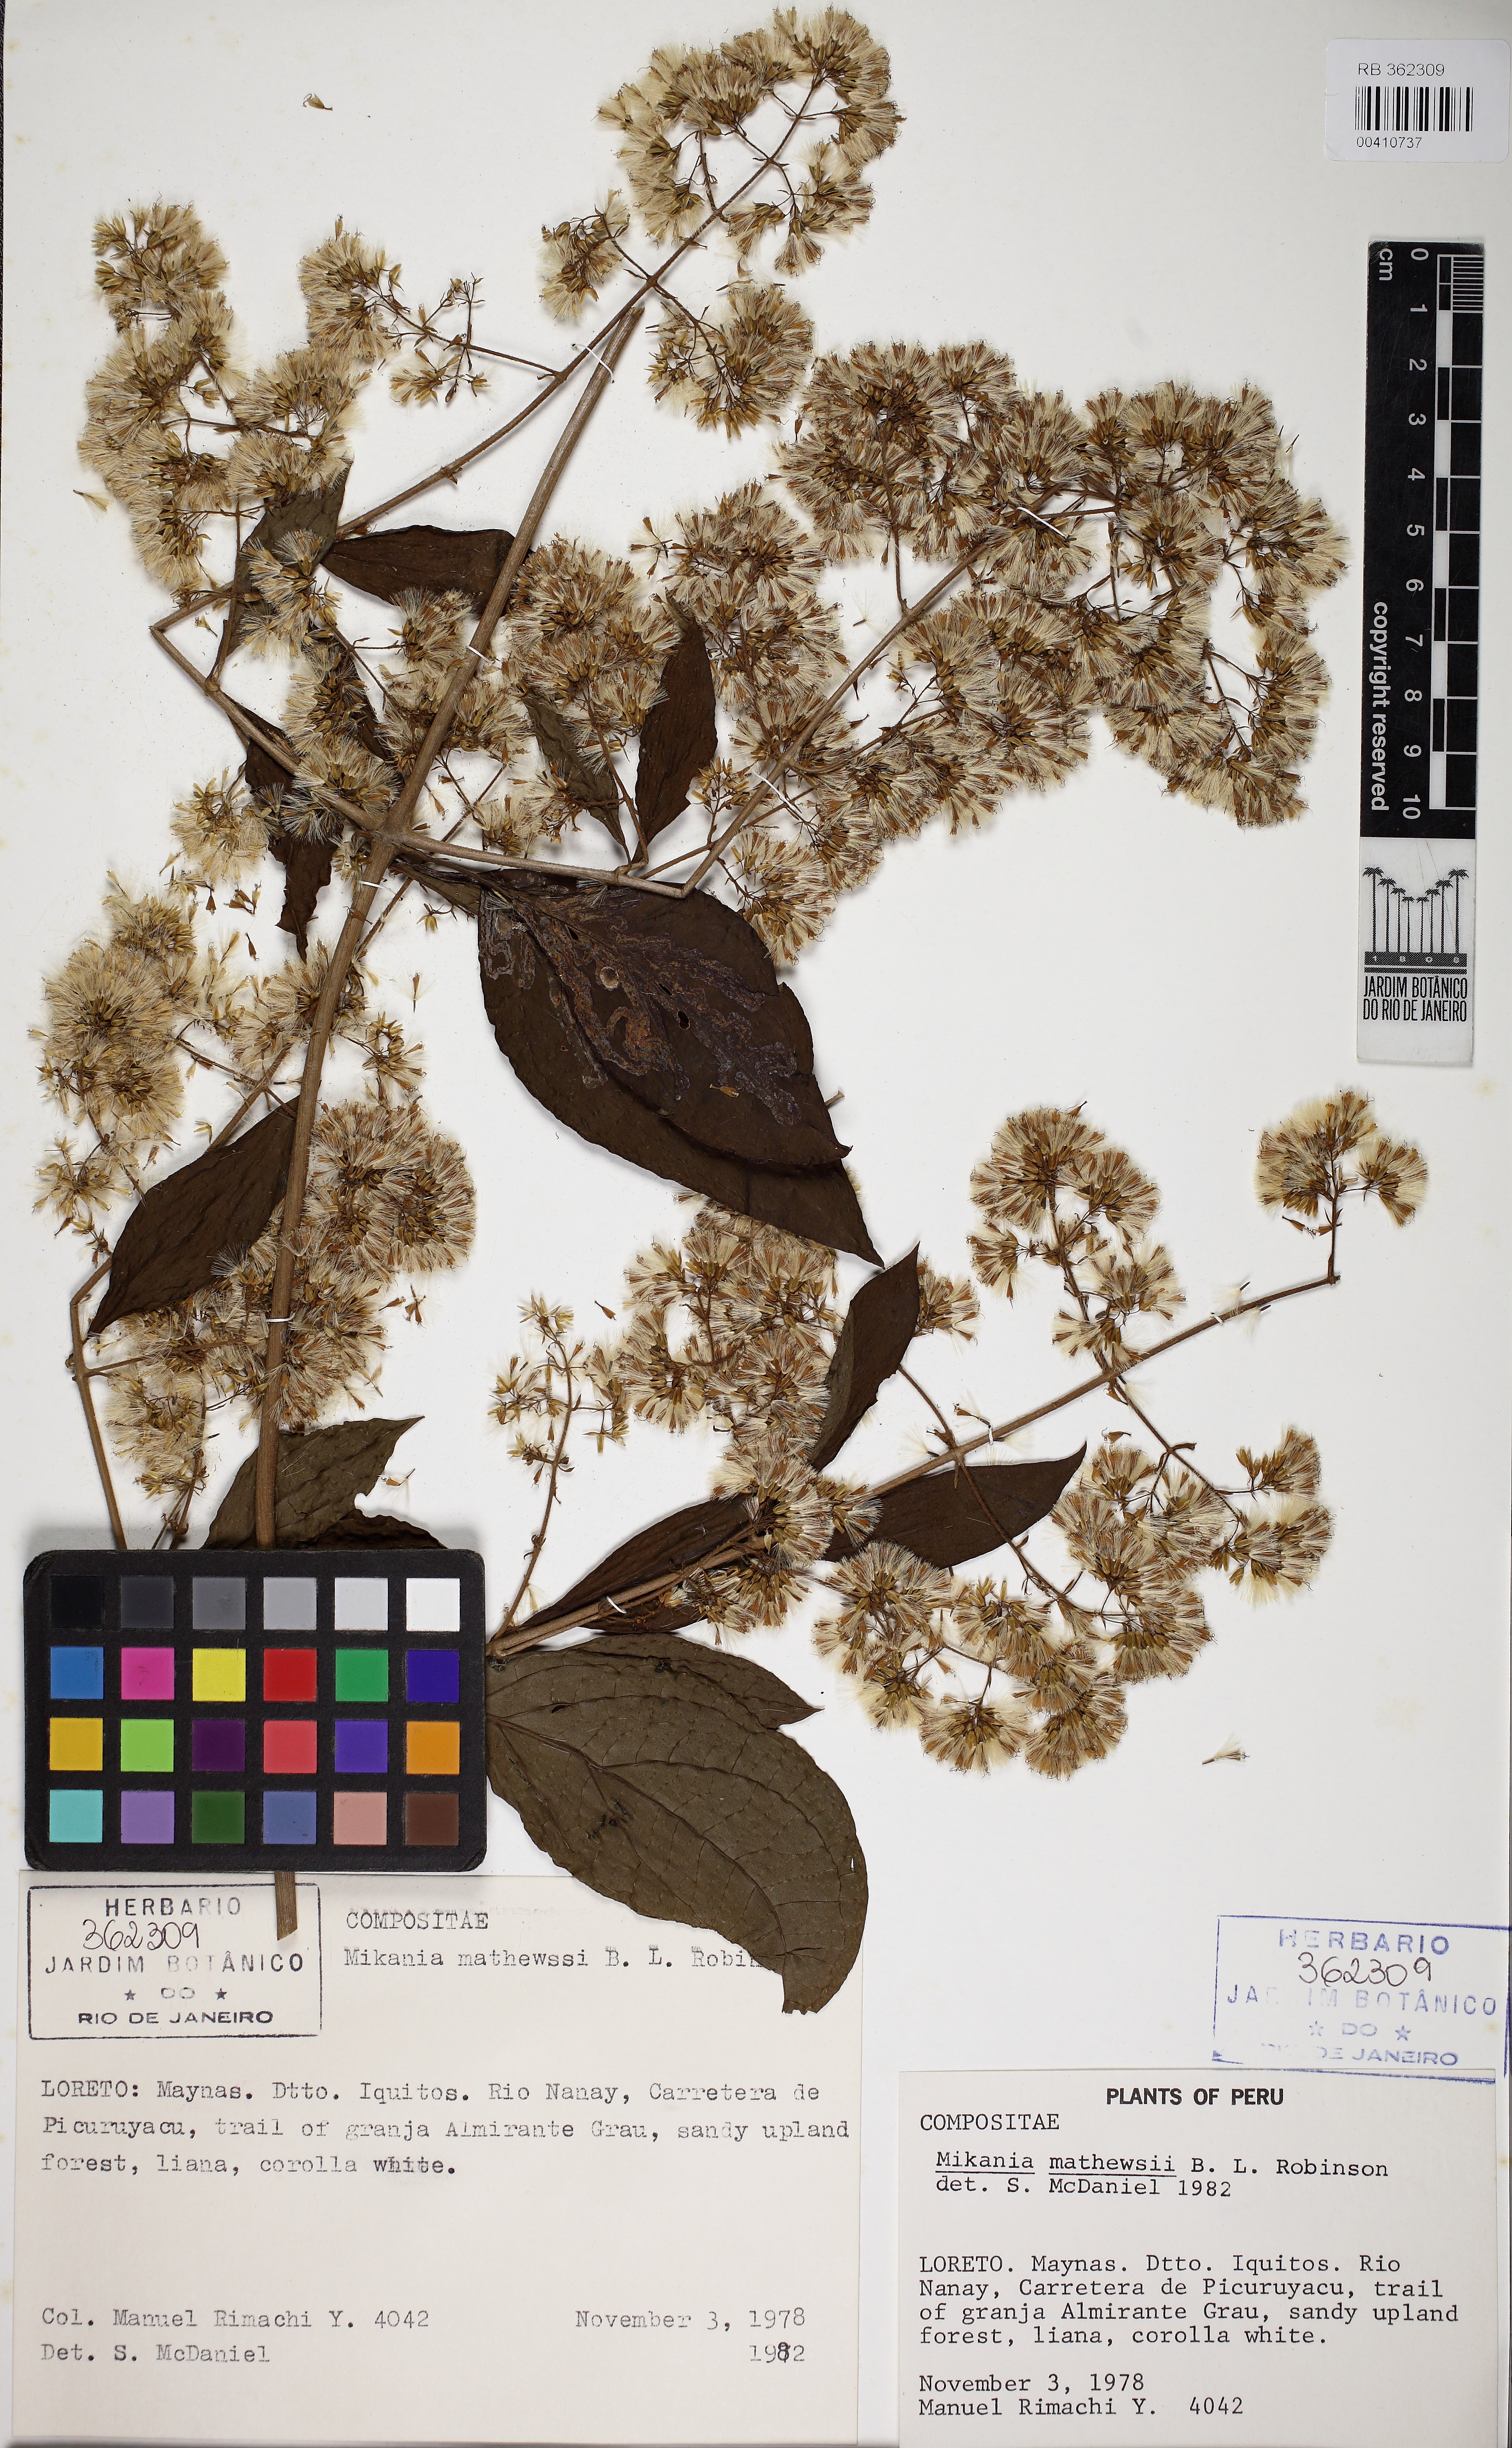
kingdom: Plantae
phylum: Tracheophyta
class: Magnoliopsida
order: Asterales
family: Asteraceae
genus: Mikania
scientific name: Mikania mathewsii
